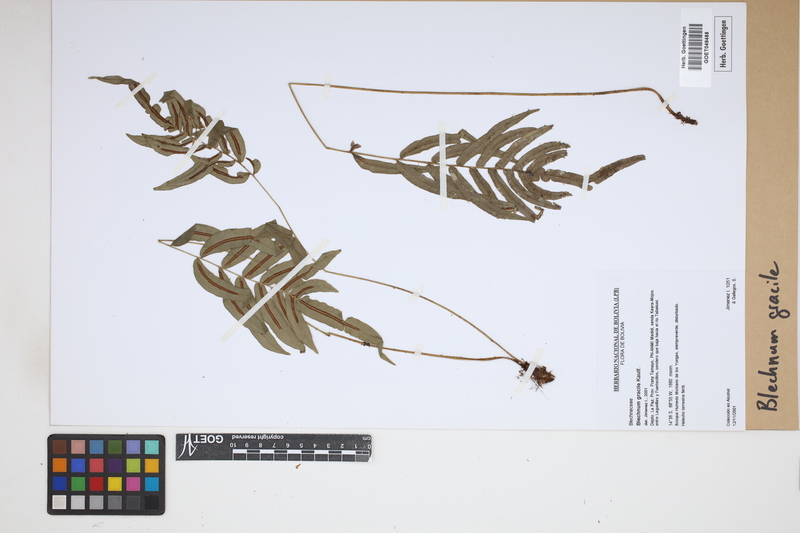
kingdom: Plantae
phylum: Tracheophyta
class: Polypodiopsida
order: Polypodiales
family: Blechnaceae
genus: Blechnum
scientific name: Blechnum gracile
